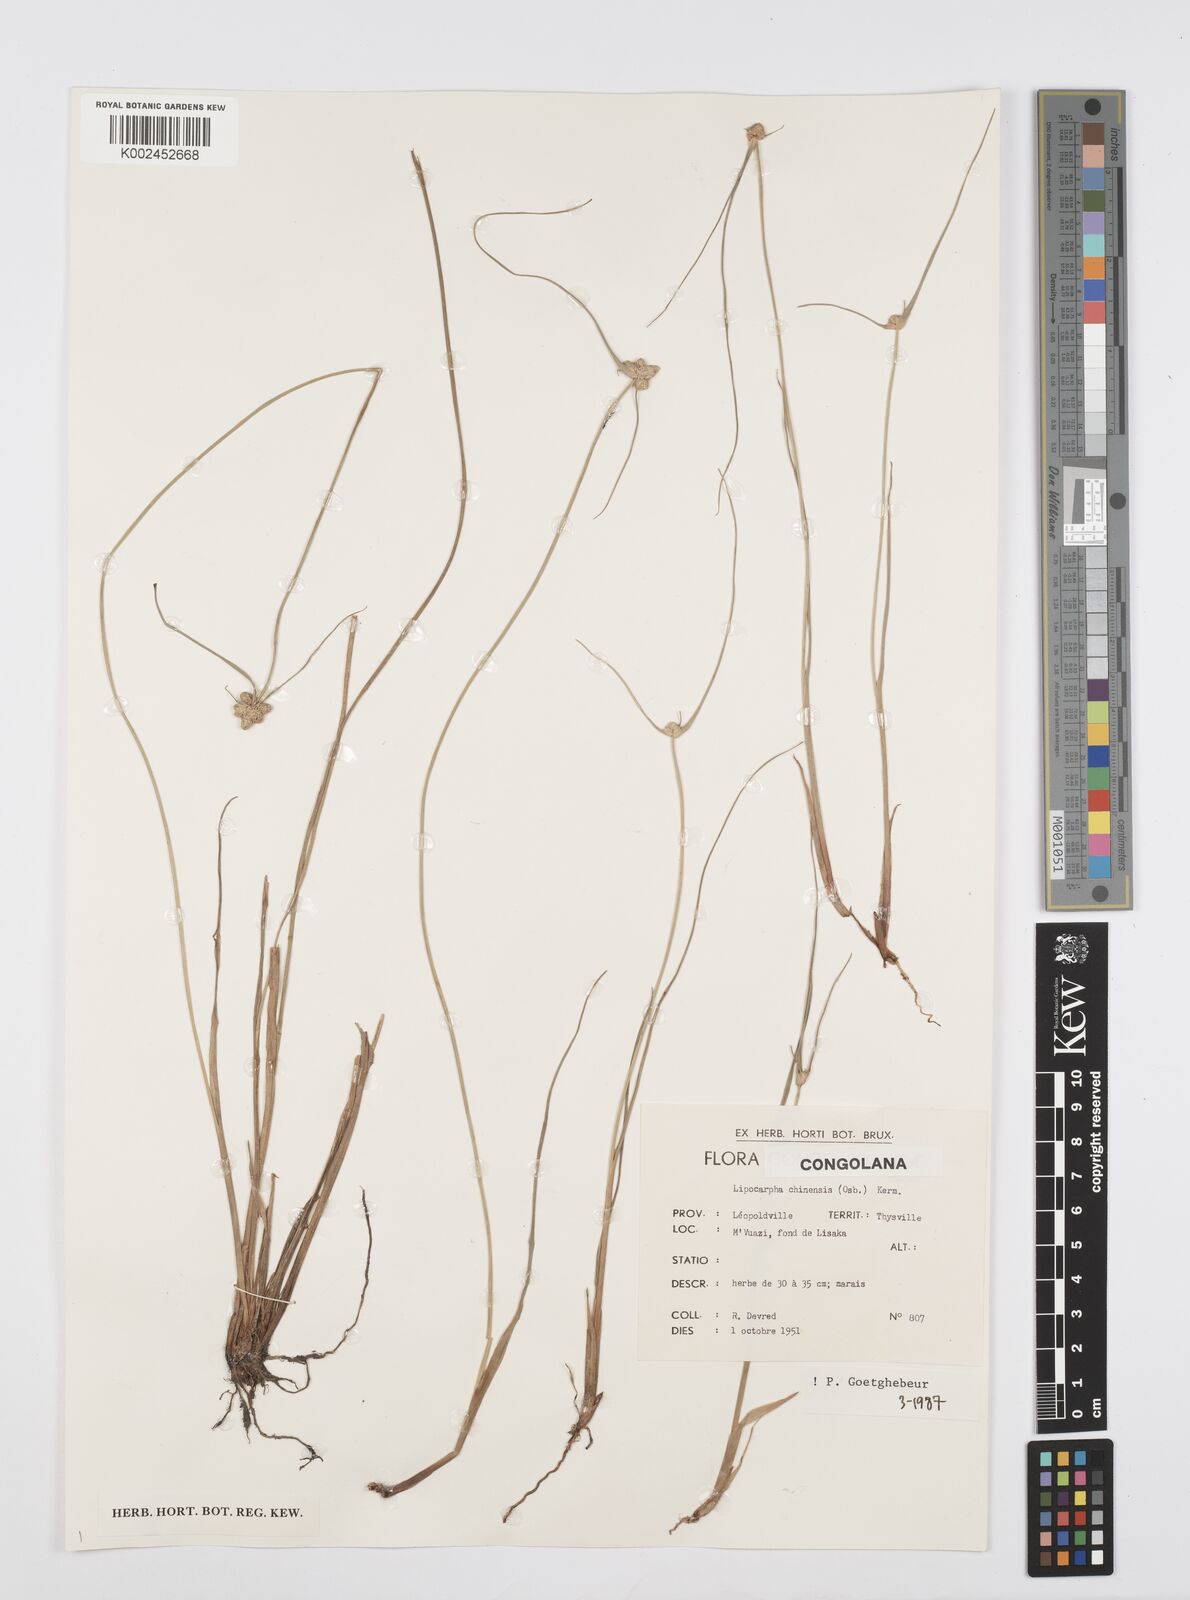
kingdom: Plantae
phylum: Tracheophyta
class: Liliopsida
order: Poales
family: Cyperaceae
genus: Cyperus
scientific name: Cyperus albescens
